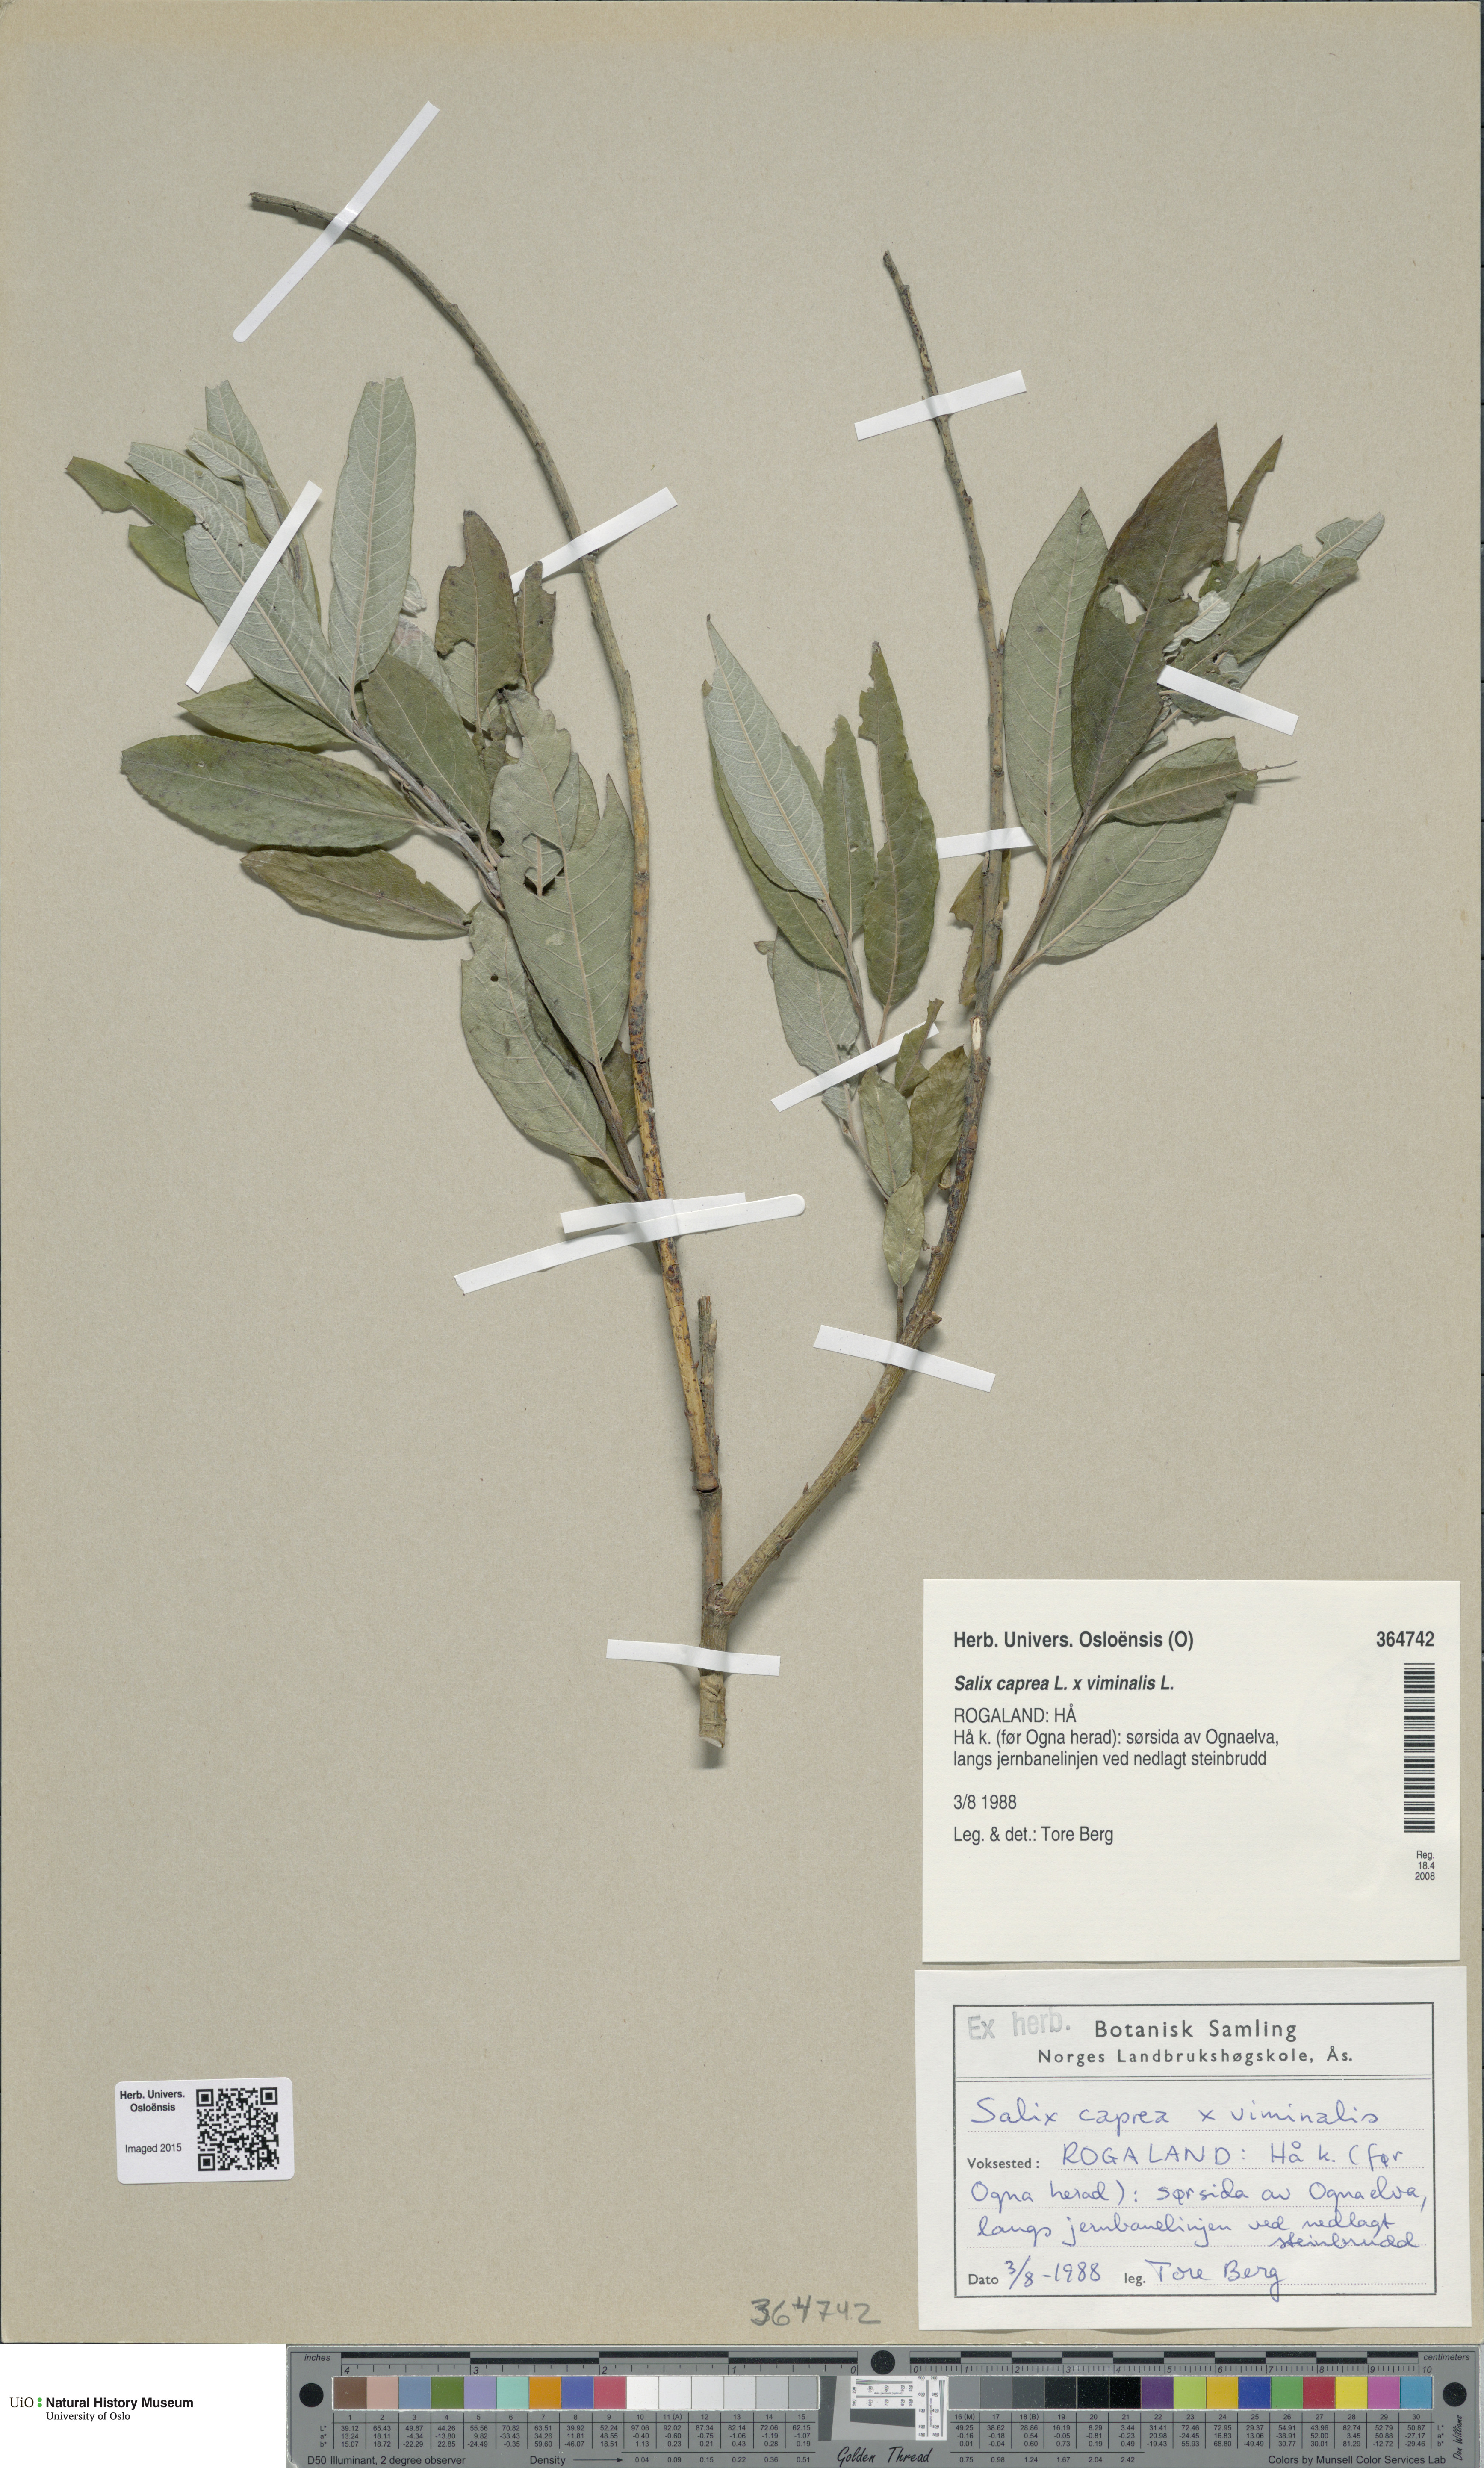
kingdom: Plantae
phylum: Tracheophyta
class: Magnoliopsida
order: Malpighiales
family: Salicaceae
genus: Salix
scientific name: Salix
